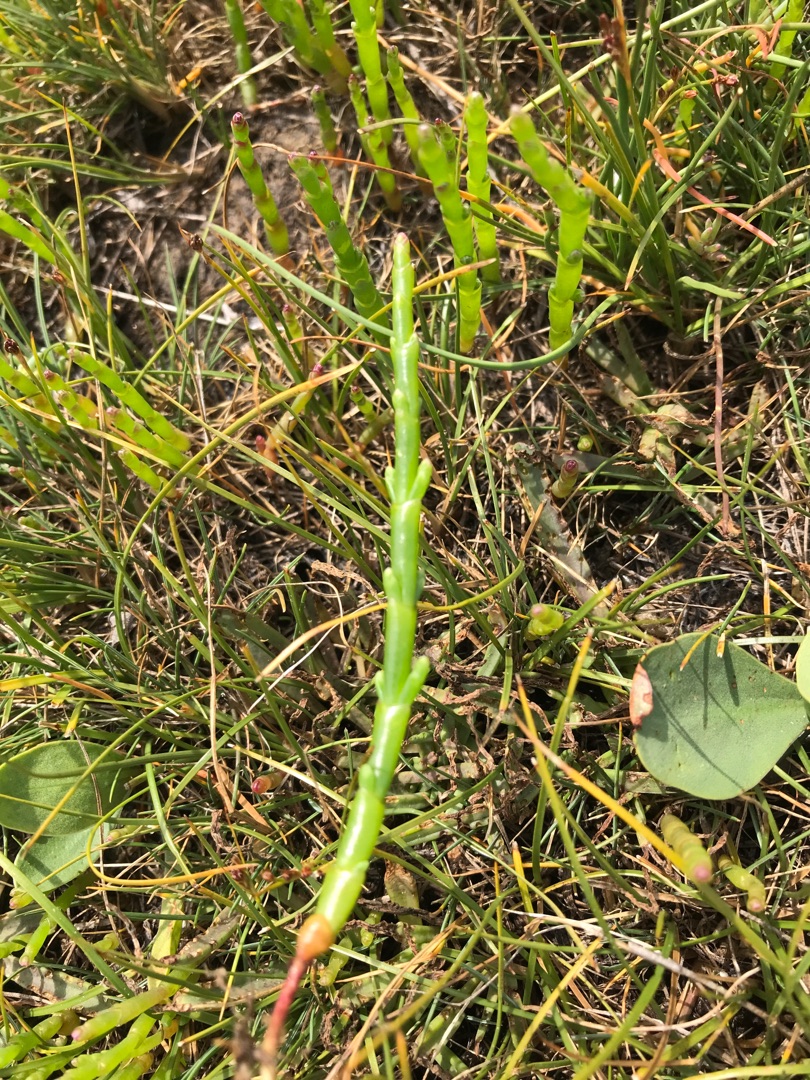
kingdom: Plantae
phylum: Tracheophyta
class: Magnoliopsida
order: Caryophyllales
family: Amaranthaceae
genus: Salicornia
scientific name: Salicornia europaea
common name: Almindelig salturt
